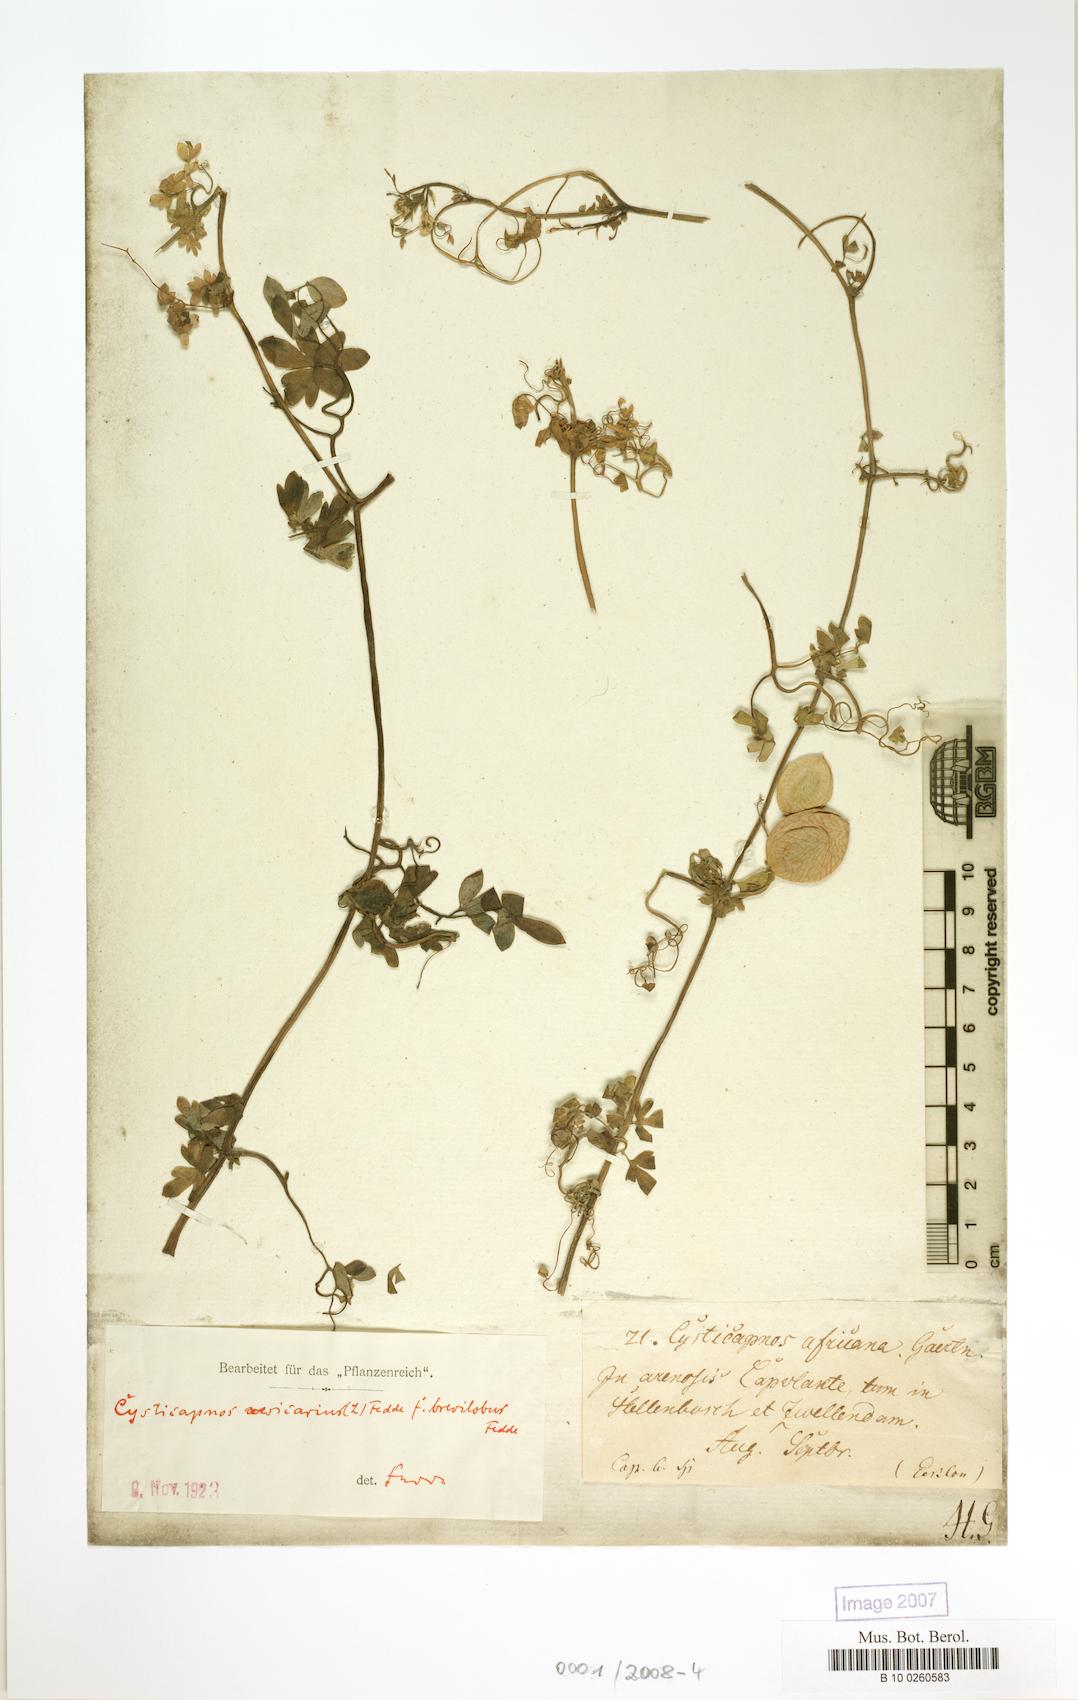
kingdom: Plantae
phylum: Tracheophyta
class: Magnoliopsida
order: Ranunculales
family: Papaveraceae
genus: Cysticapnos
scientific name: Cysticapnos
